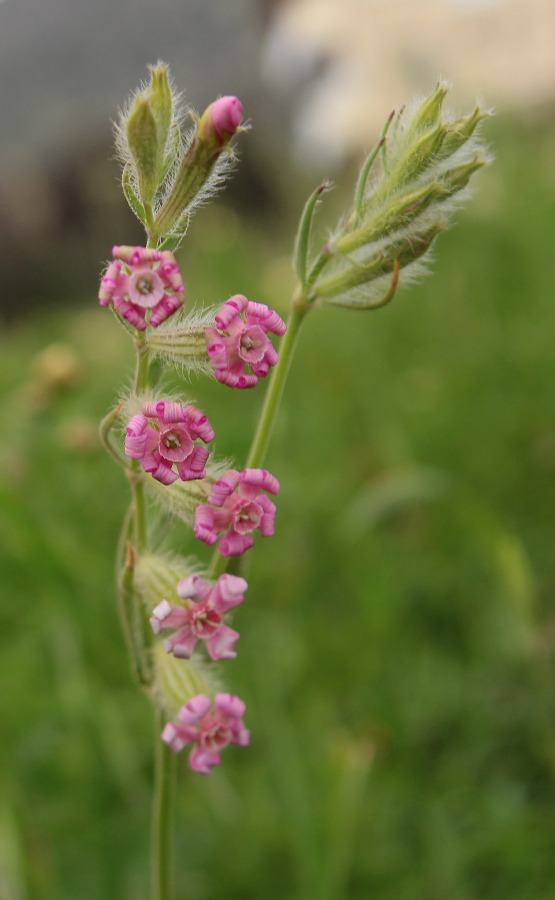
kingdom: Plantae
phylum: Tracheophyta
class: Magnoliopsida
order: Caryophyllales
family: Caryophyllaceae
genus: Silene
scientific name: Silene bellidifolia
